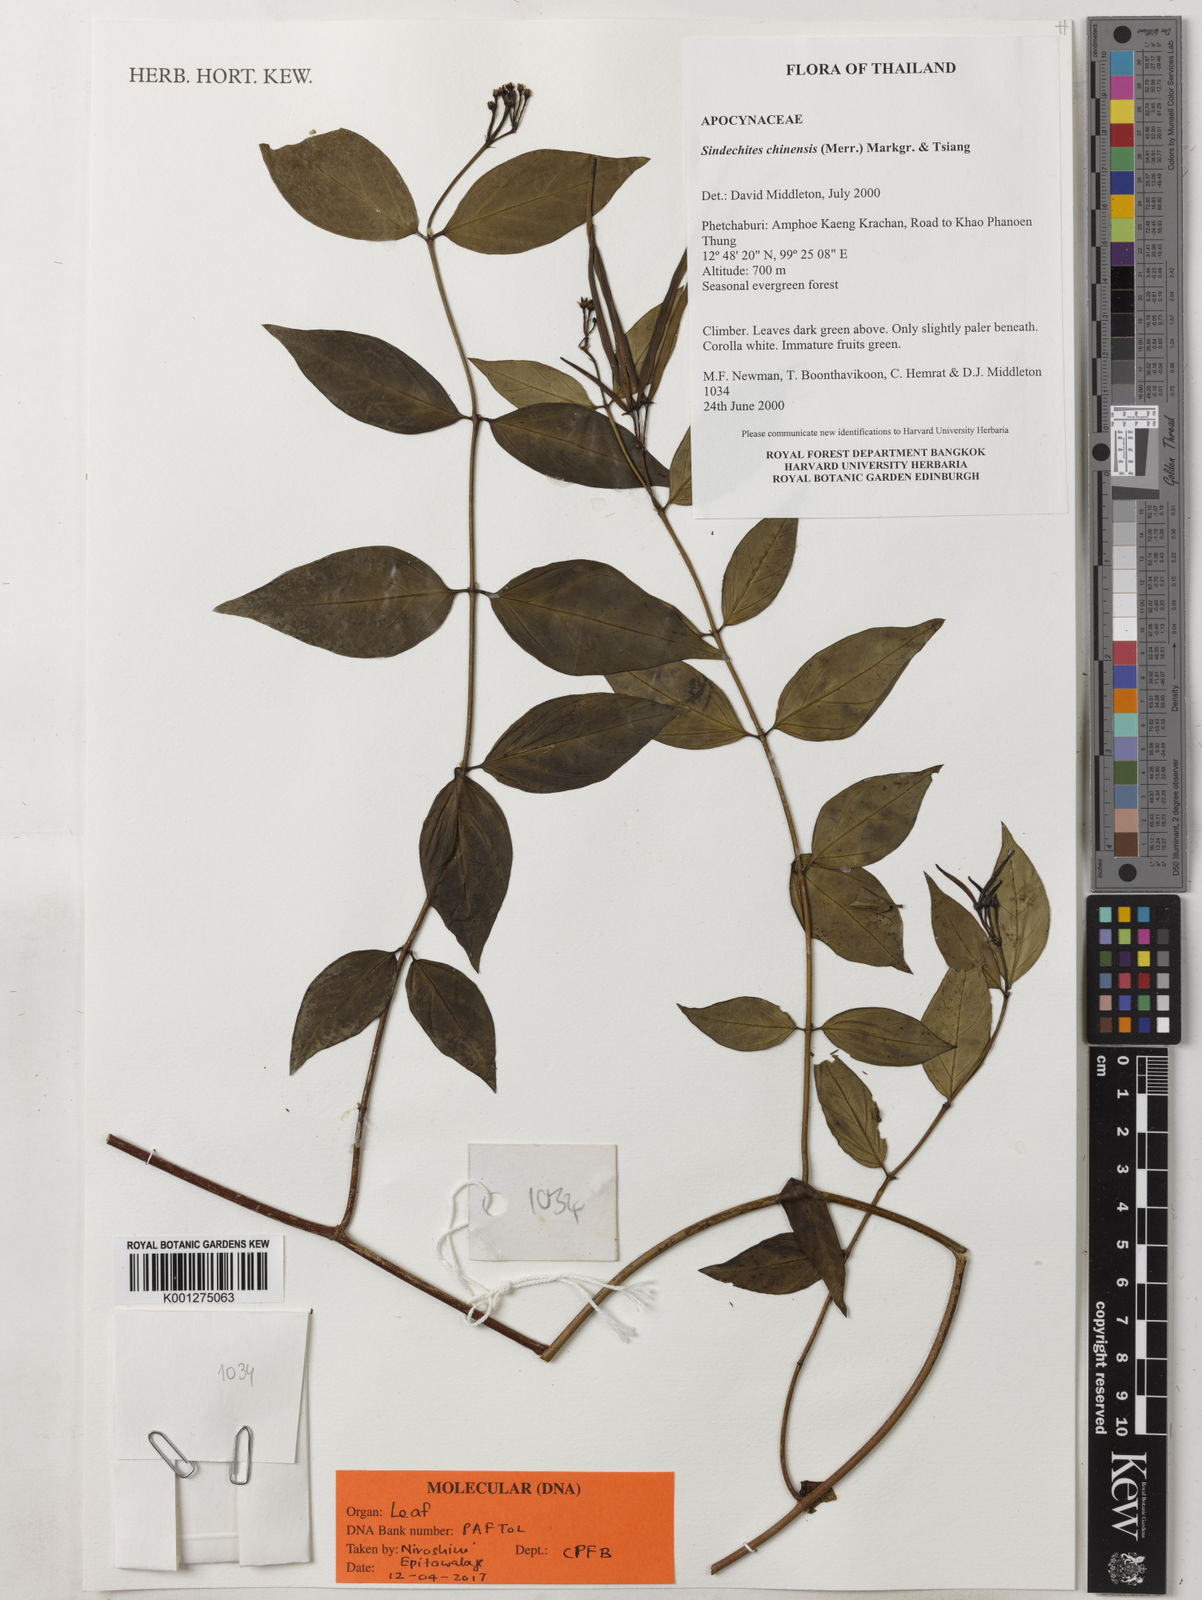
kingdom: Plantae
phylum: Tracheophyta
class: Magnoliopsida
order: Gentianales
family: Apocynaceae
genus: Streptoechites
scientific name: Streptoechites chinensis
